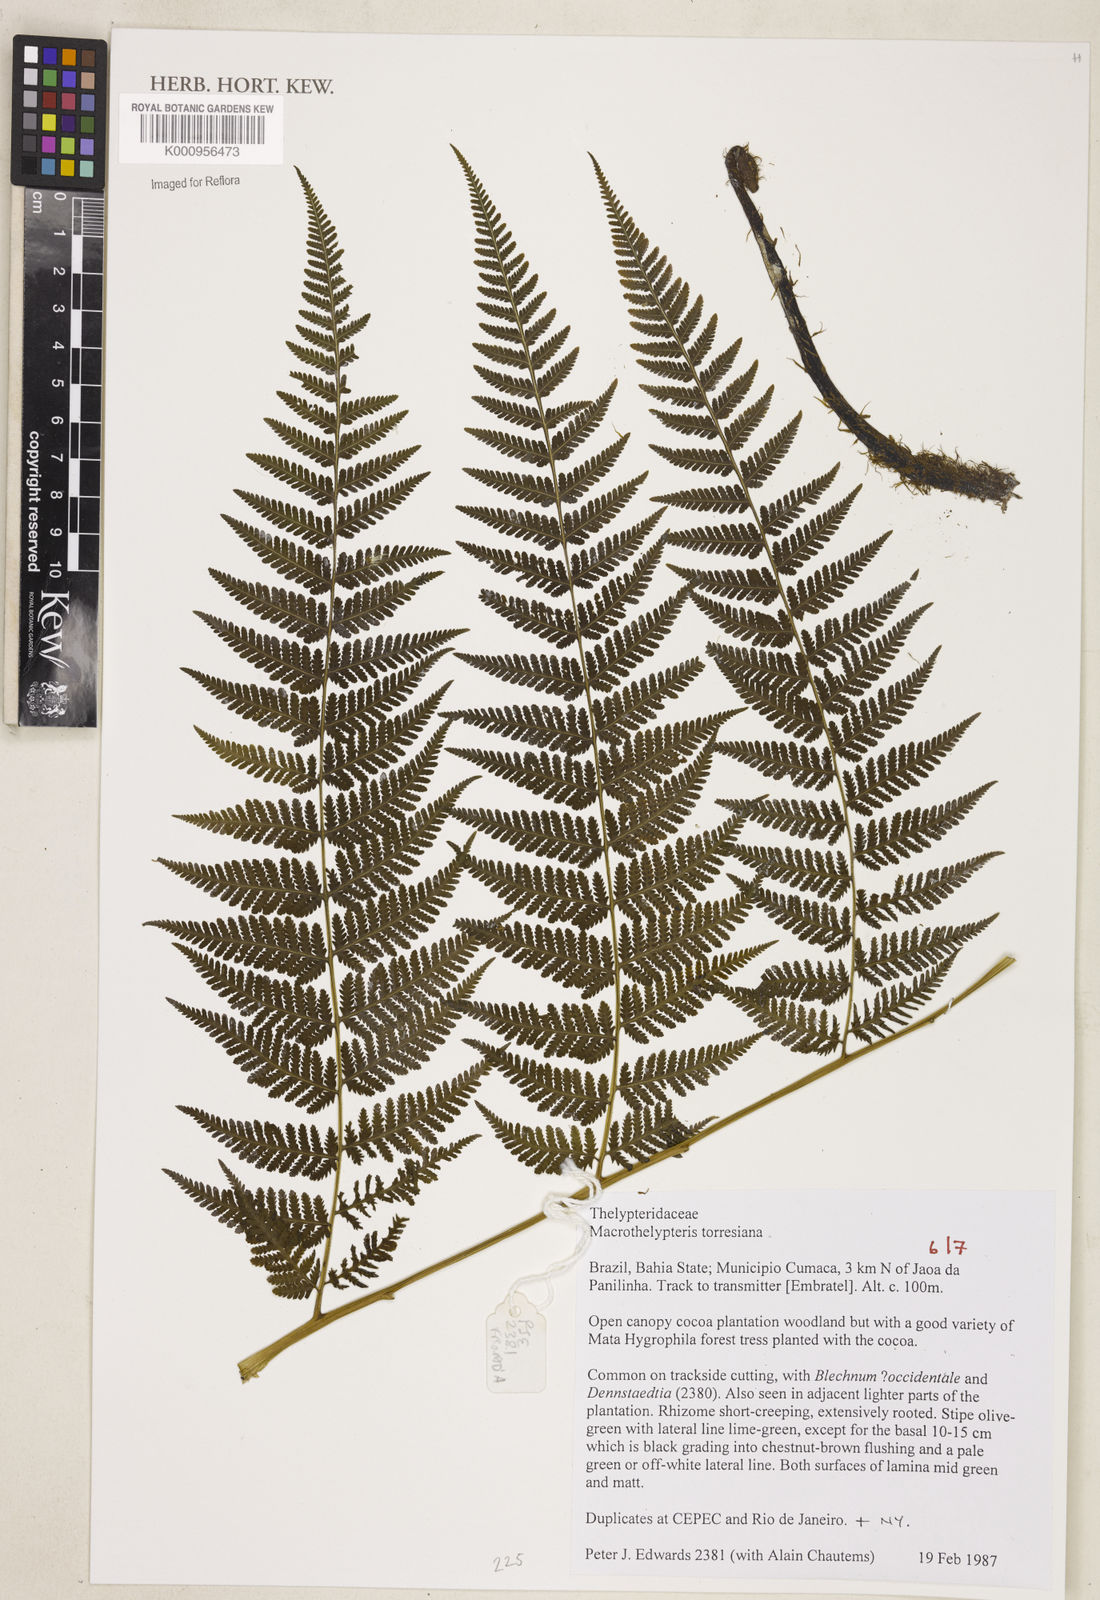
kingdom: Plantae
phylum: Tracheophyta
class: Polypodiopsida
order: Polypodiales
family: Thelypteridaceae
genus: Macrothelypteris
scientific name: Macrothelypteris torresiana
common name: Swordfern
